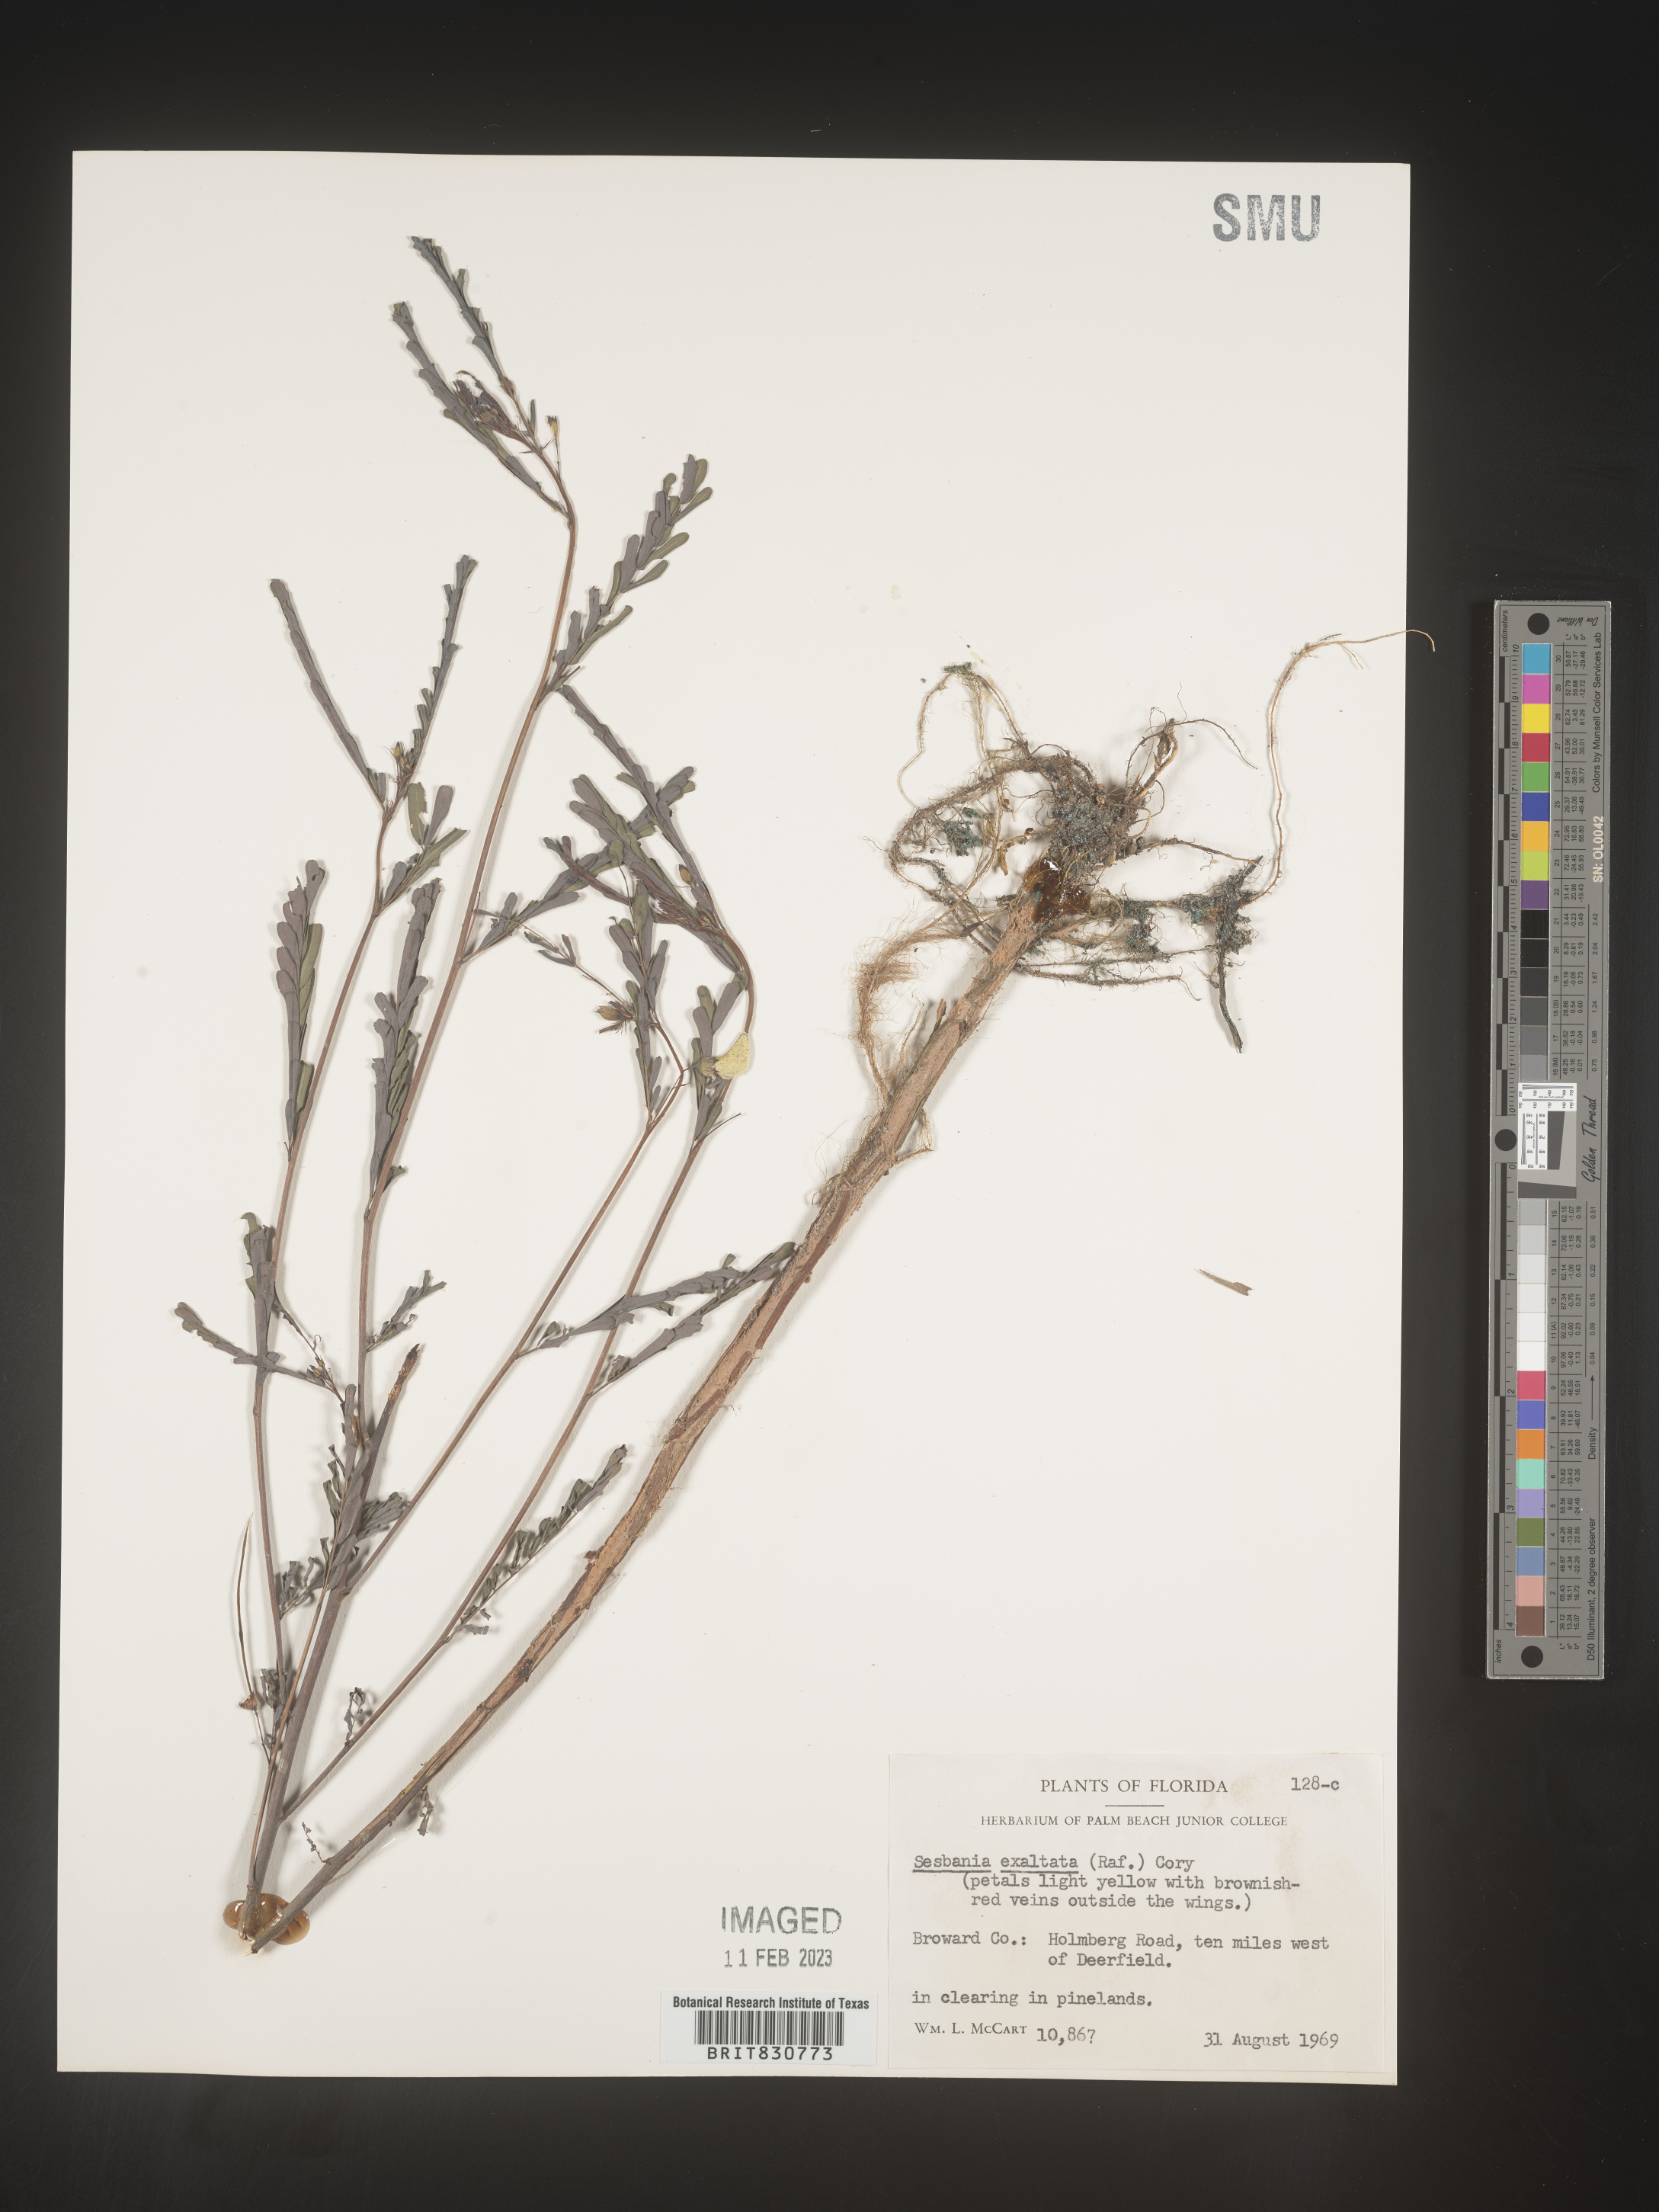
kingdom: Plantae
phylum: Tracheophyta
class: Magnoliopsida
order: Fabales
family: Fabaceae
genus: Sesbania
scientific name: Sesbania vesicaria
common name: Bagpod
